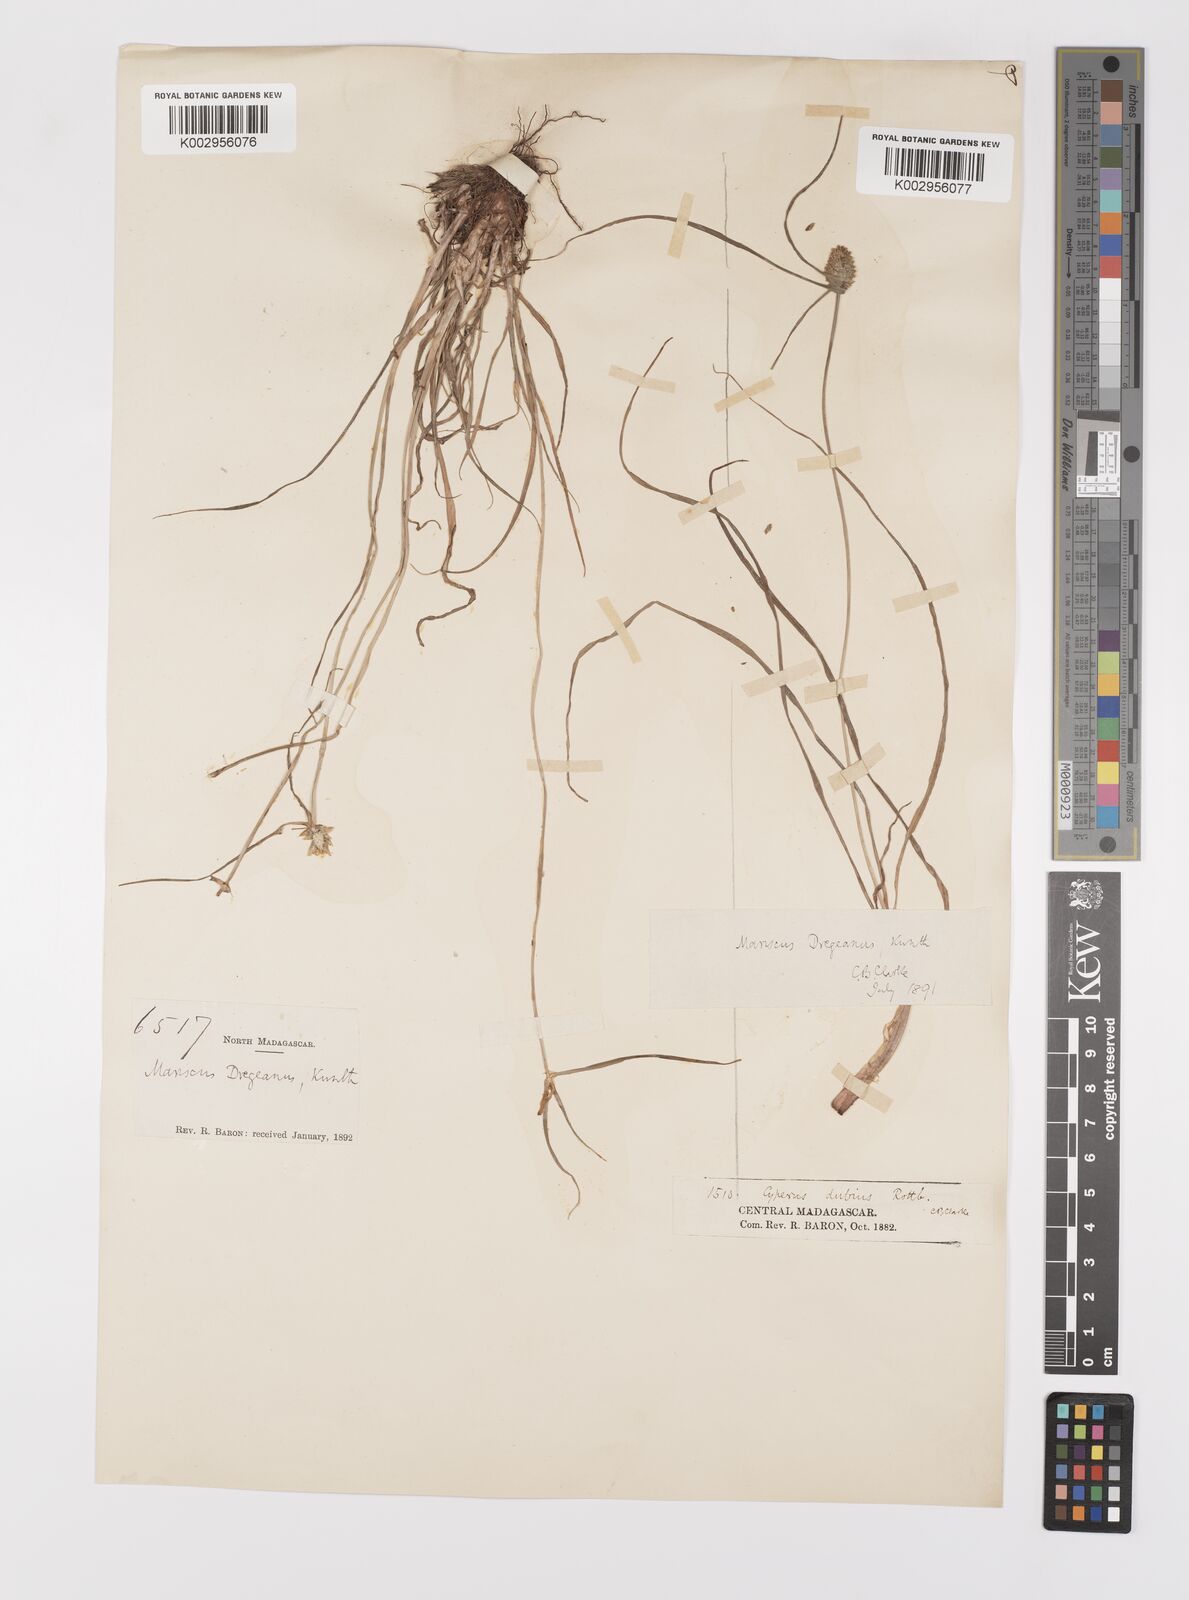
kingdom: Plantae
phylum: Tracheophyta
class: Liliopsida
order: Poales
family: Cyperaceae
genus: Cyperus
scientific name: Cyperus dubius
